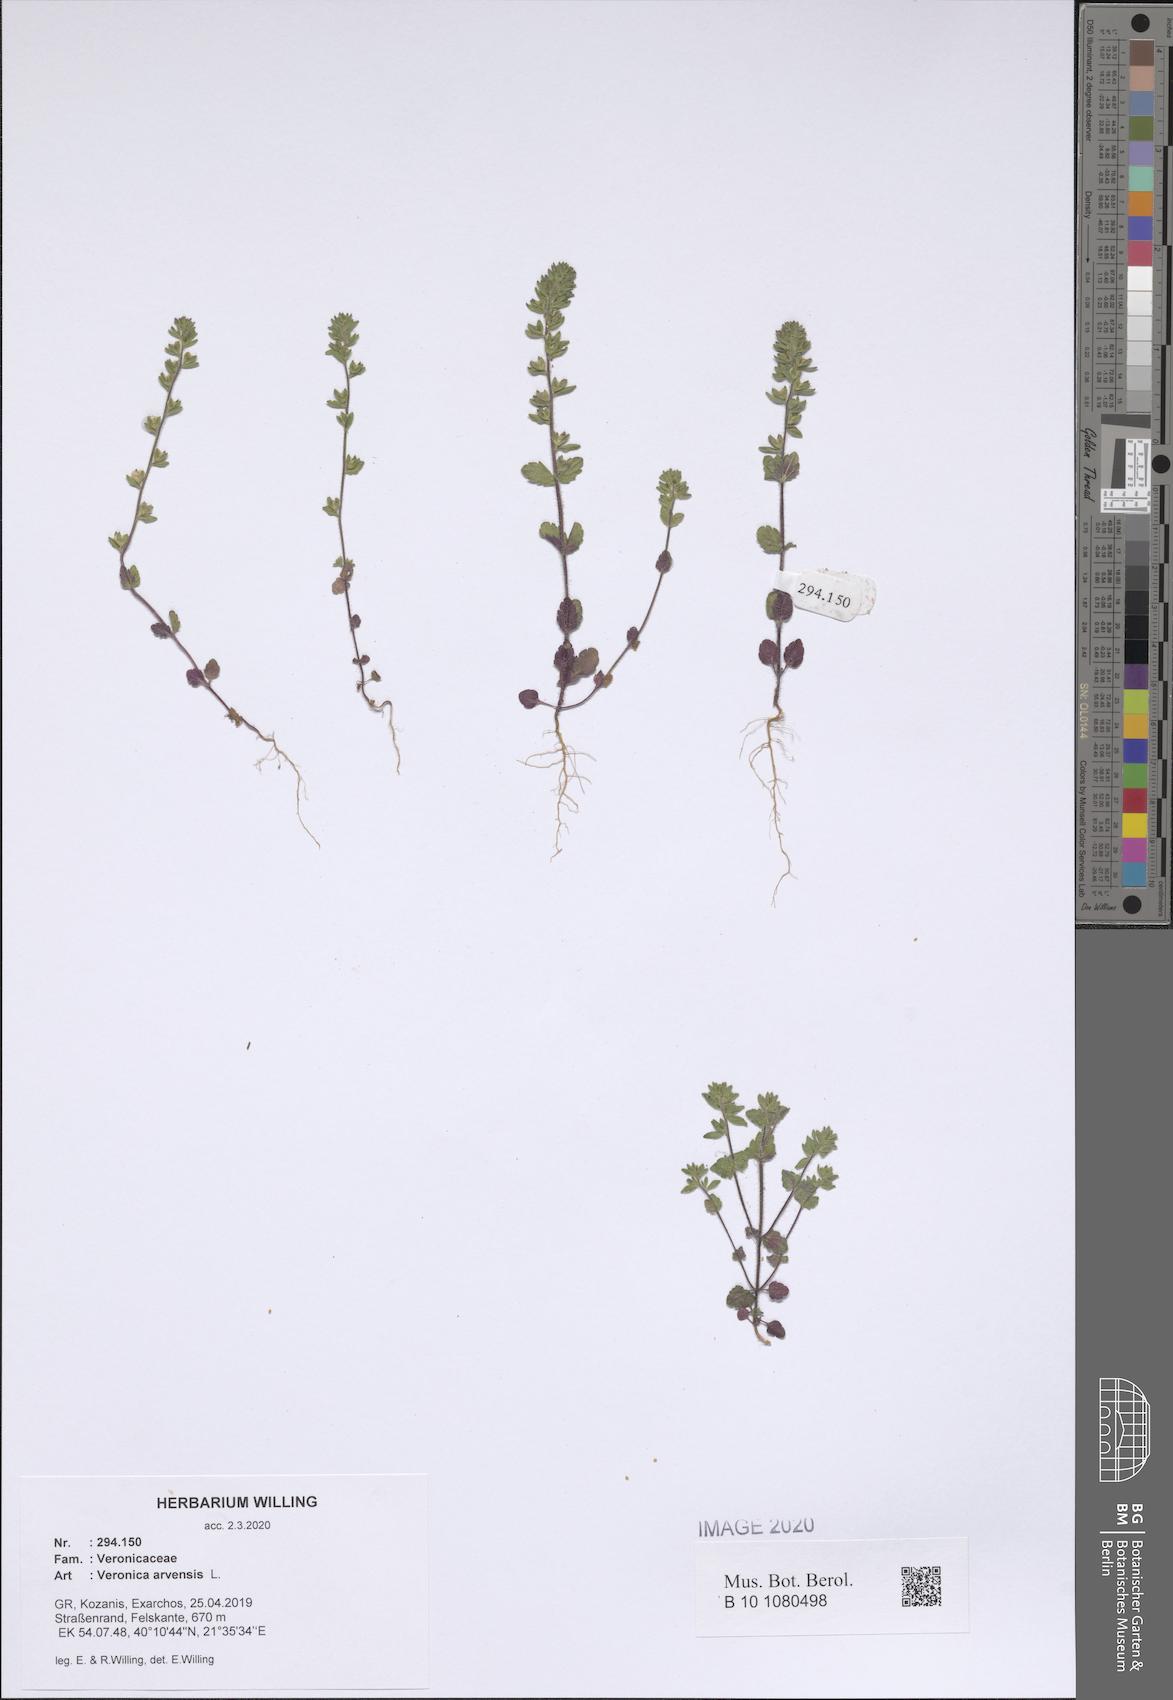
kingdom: Plantae
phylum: Tracheophyta
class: Magnoliopsida
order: Lamiales
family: Plantaginaceae
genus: Veronica
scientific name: Veronica arvensis
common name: Corn speedwell
